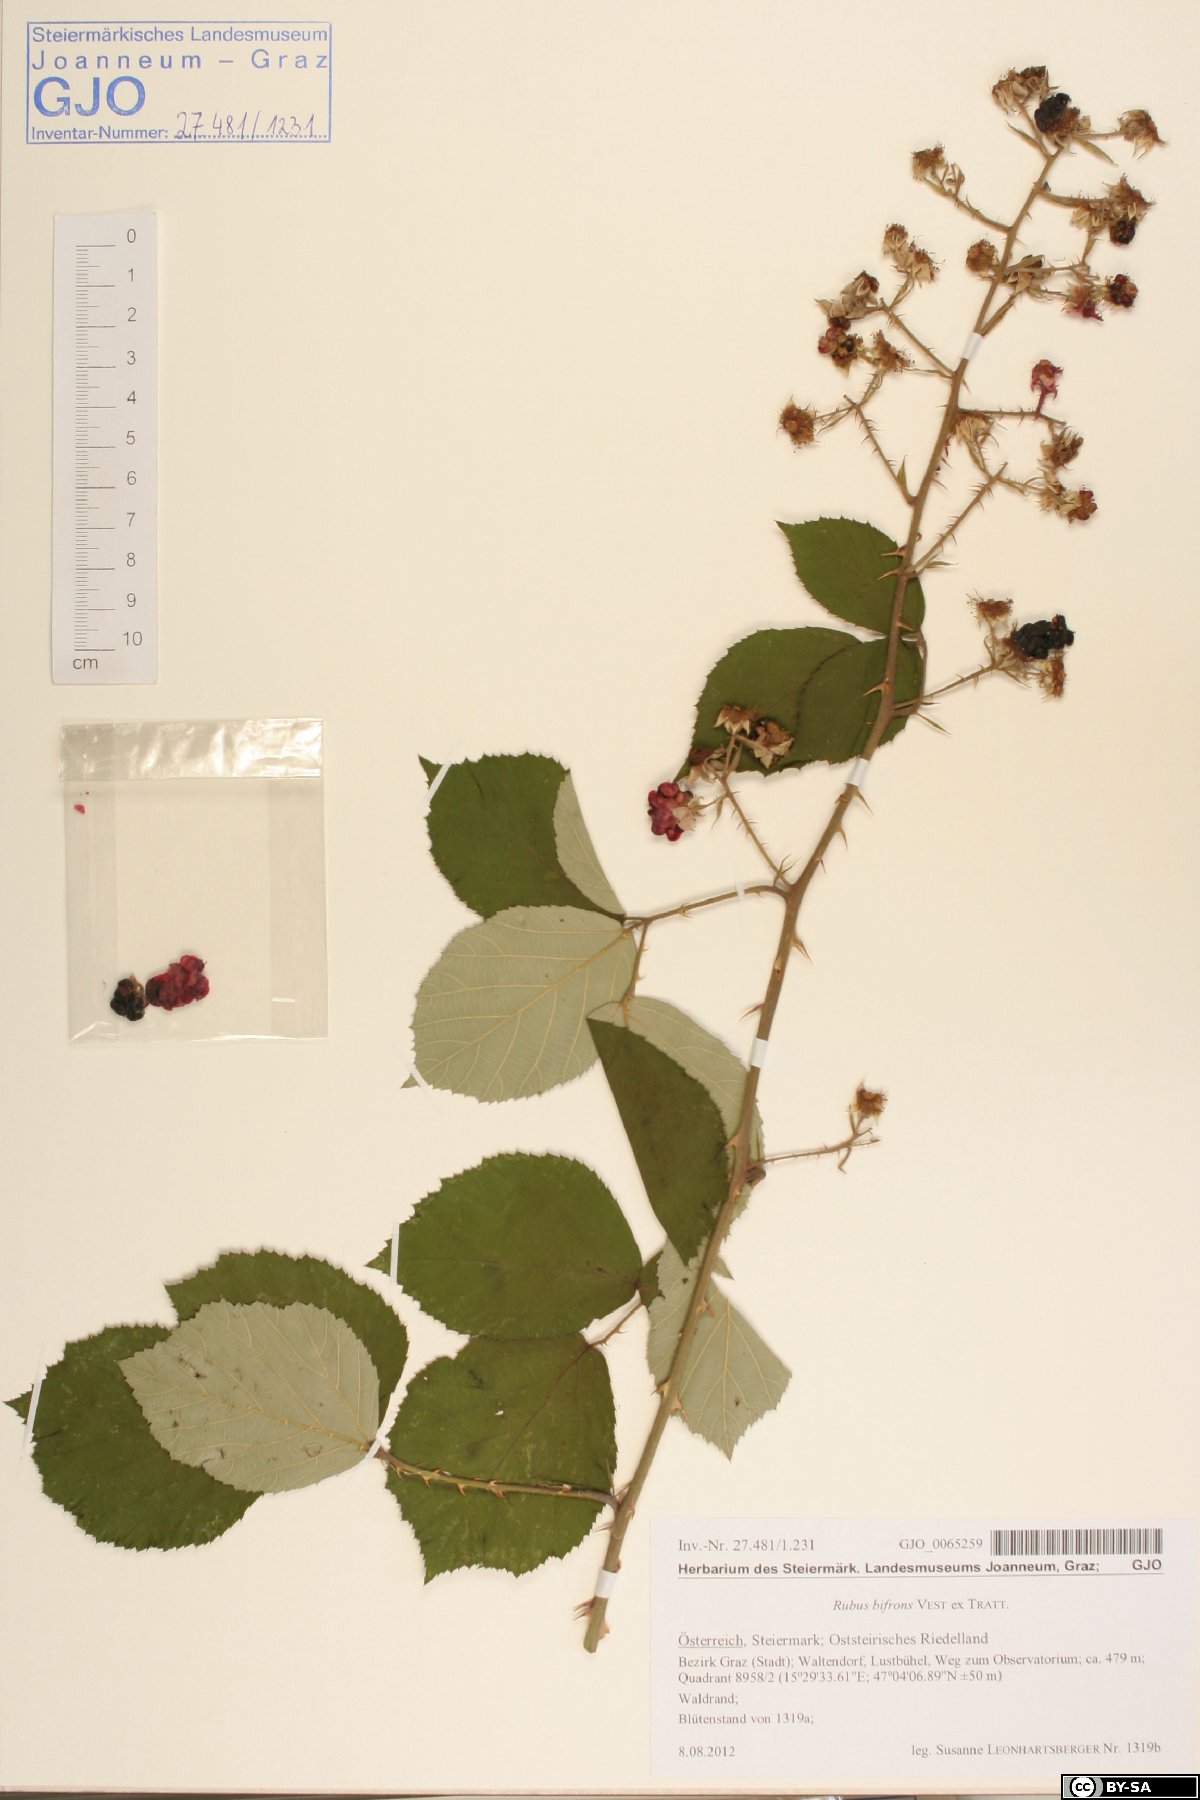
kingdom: Plantae
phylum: Tracheophyta
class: Magnoliopsida
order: Rosales
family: Rosaceae
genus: Rubus
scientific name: Rubus bifrons
